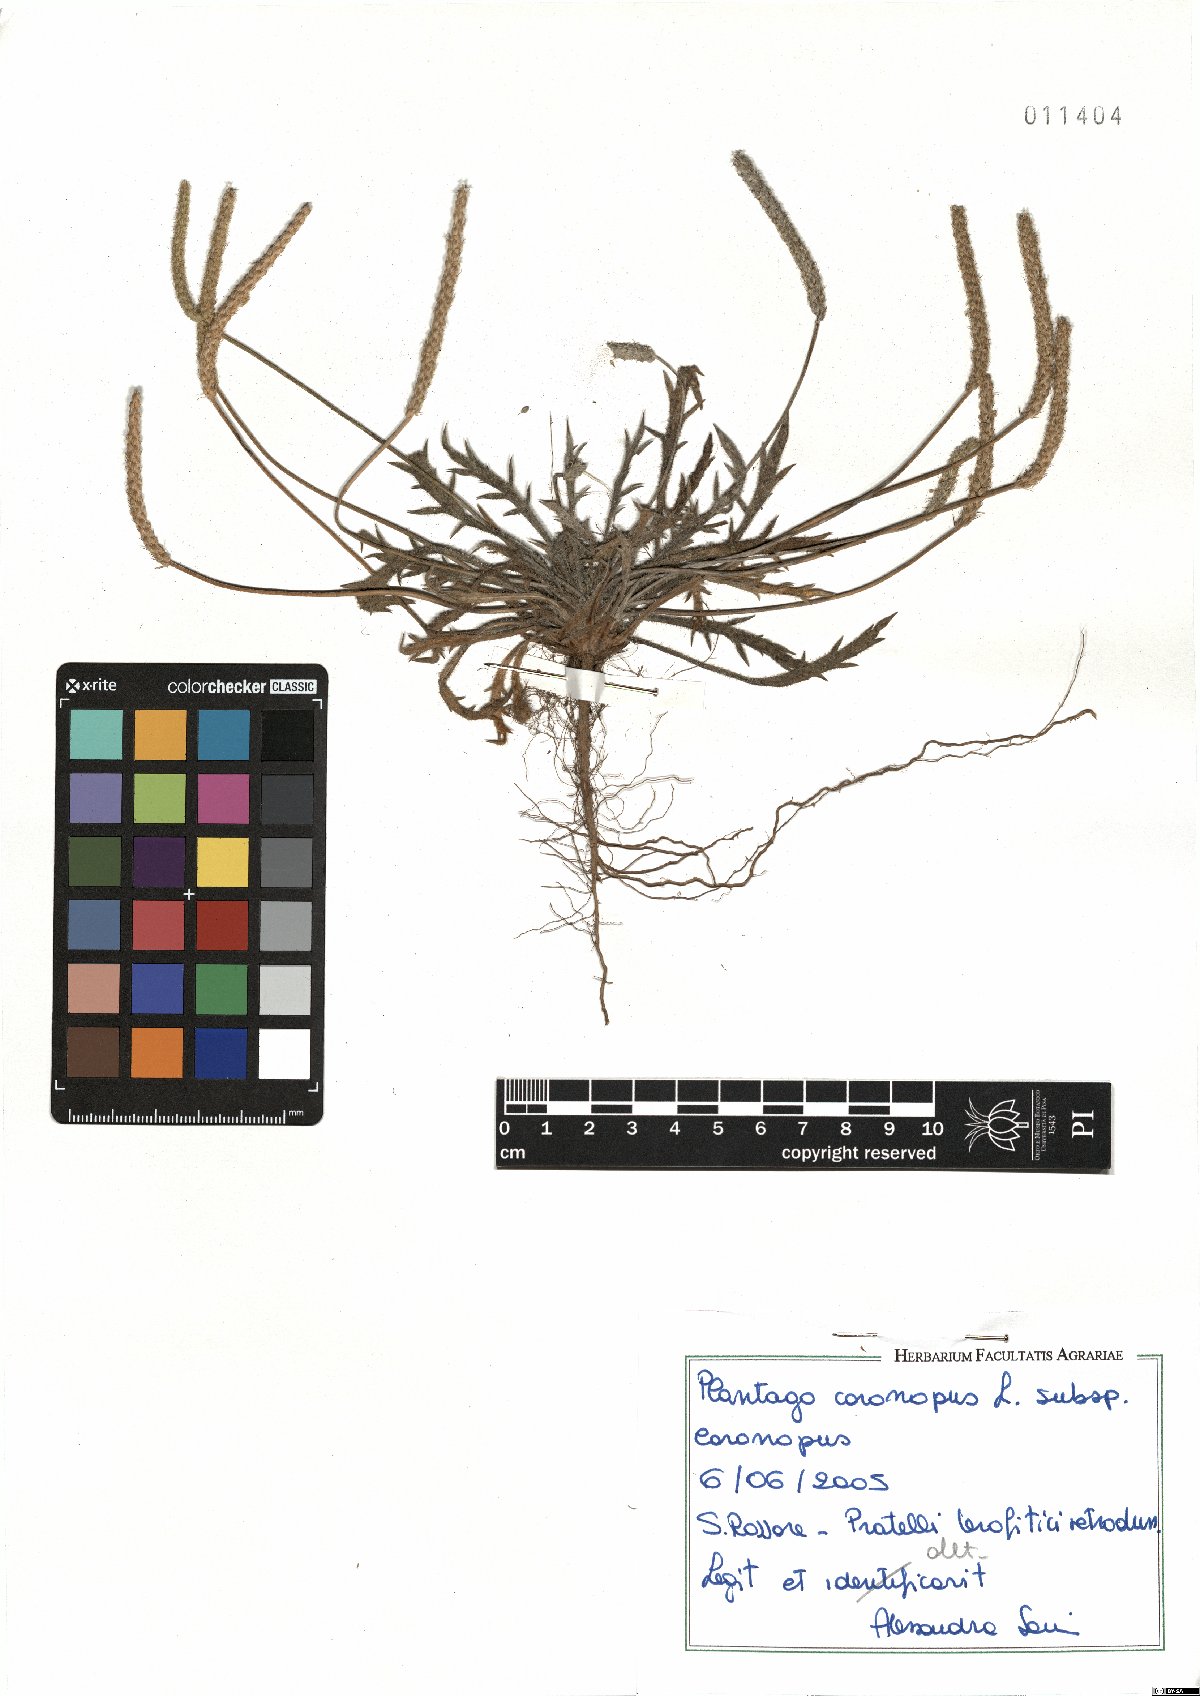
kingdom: Plantae
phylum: Tracheophyta
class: Magnoliopsida
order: Lamiales
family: Plantaginaceae
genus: Plantago
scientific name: Plantago coronopus
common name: Buck's-horn plantain
